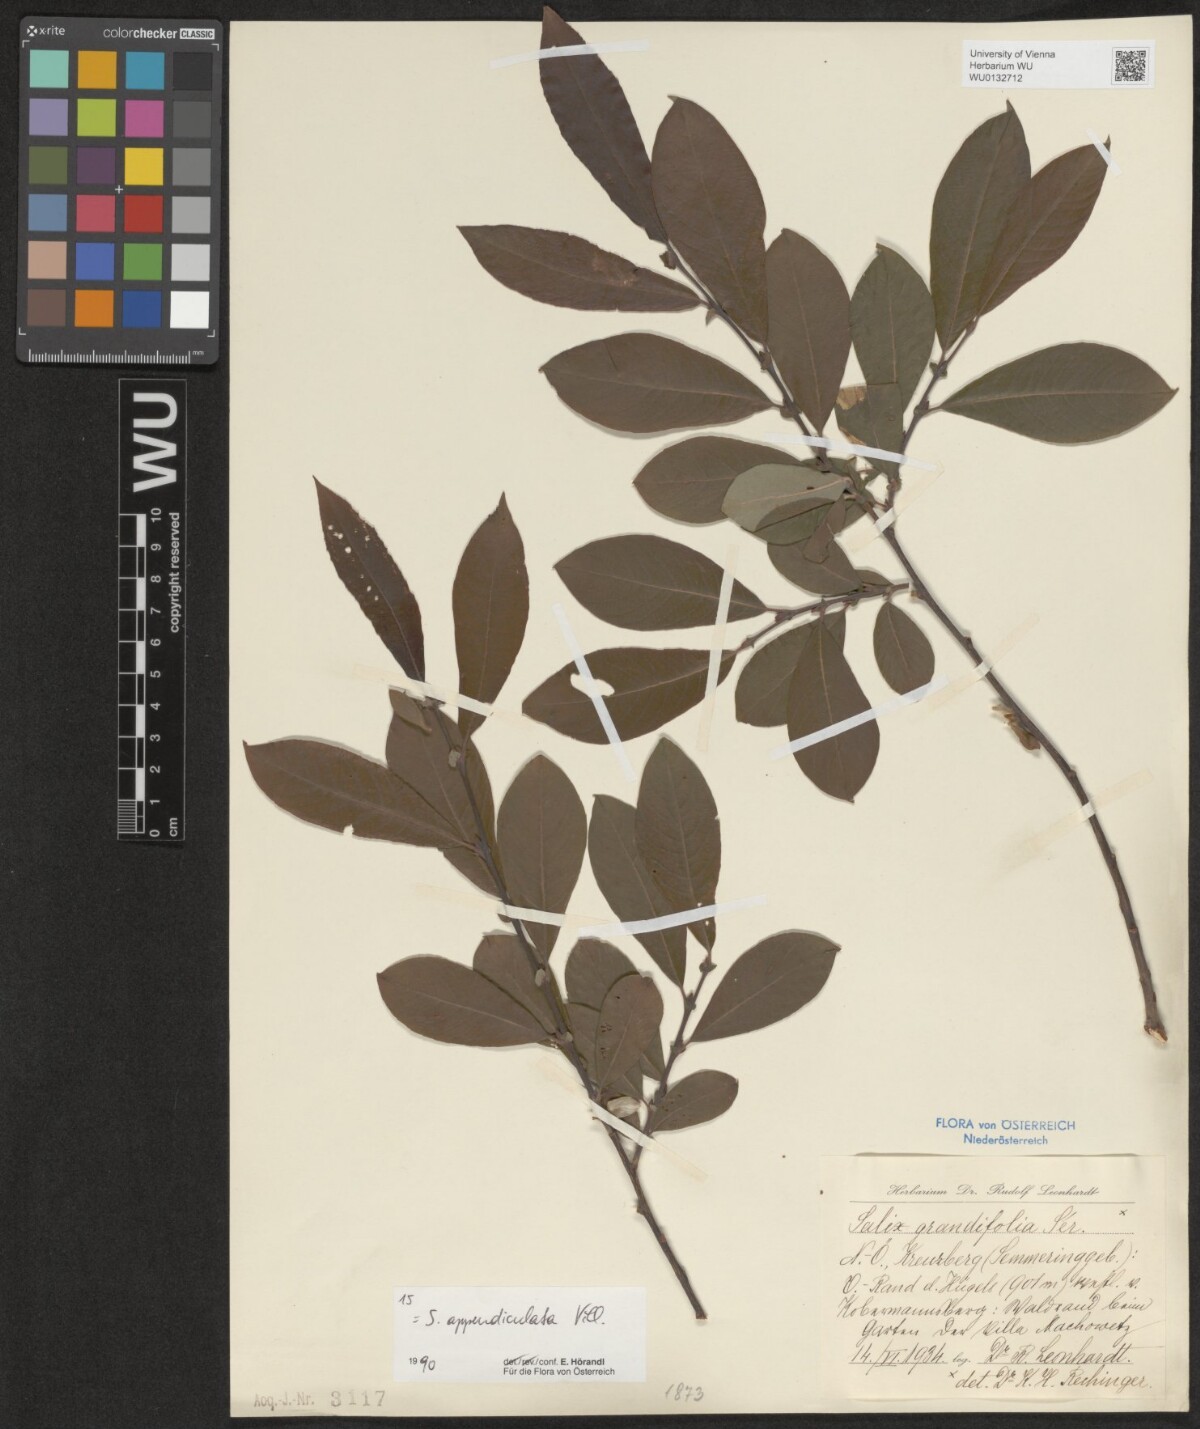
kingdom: Plantae
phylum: Tracheophyta
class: Magnoliopsida
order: Malpighiales
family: Salicaceae
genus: Salix
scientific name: Salix appendiculata
